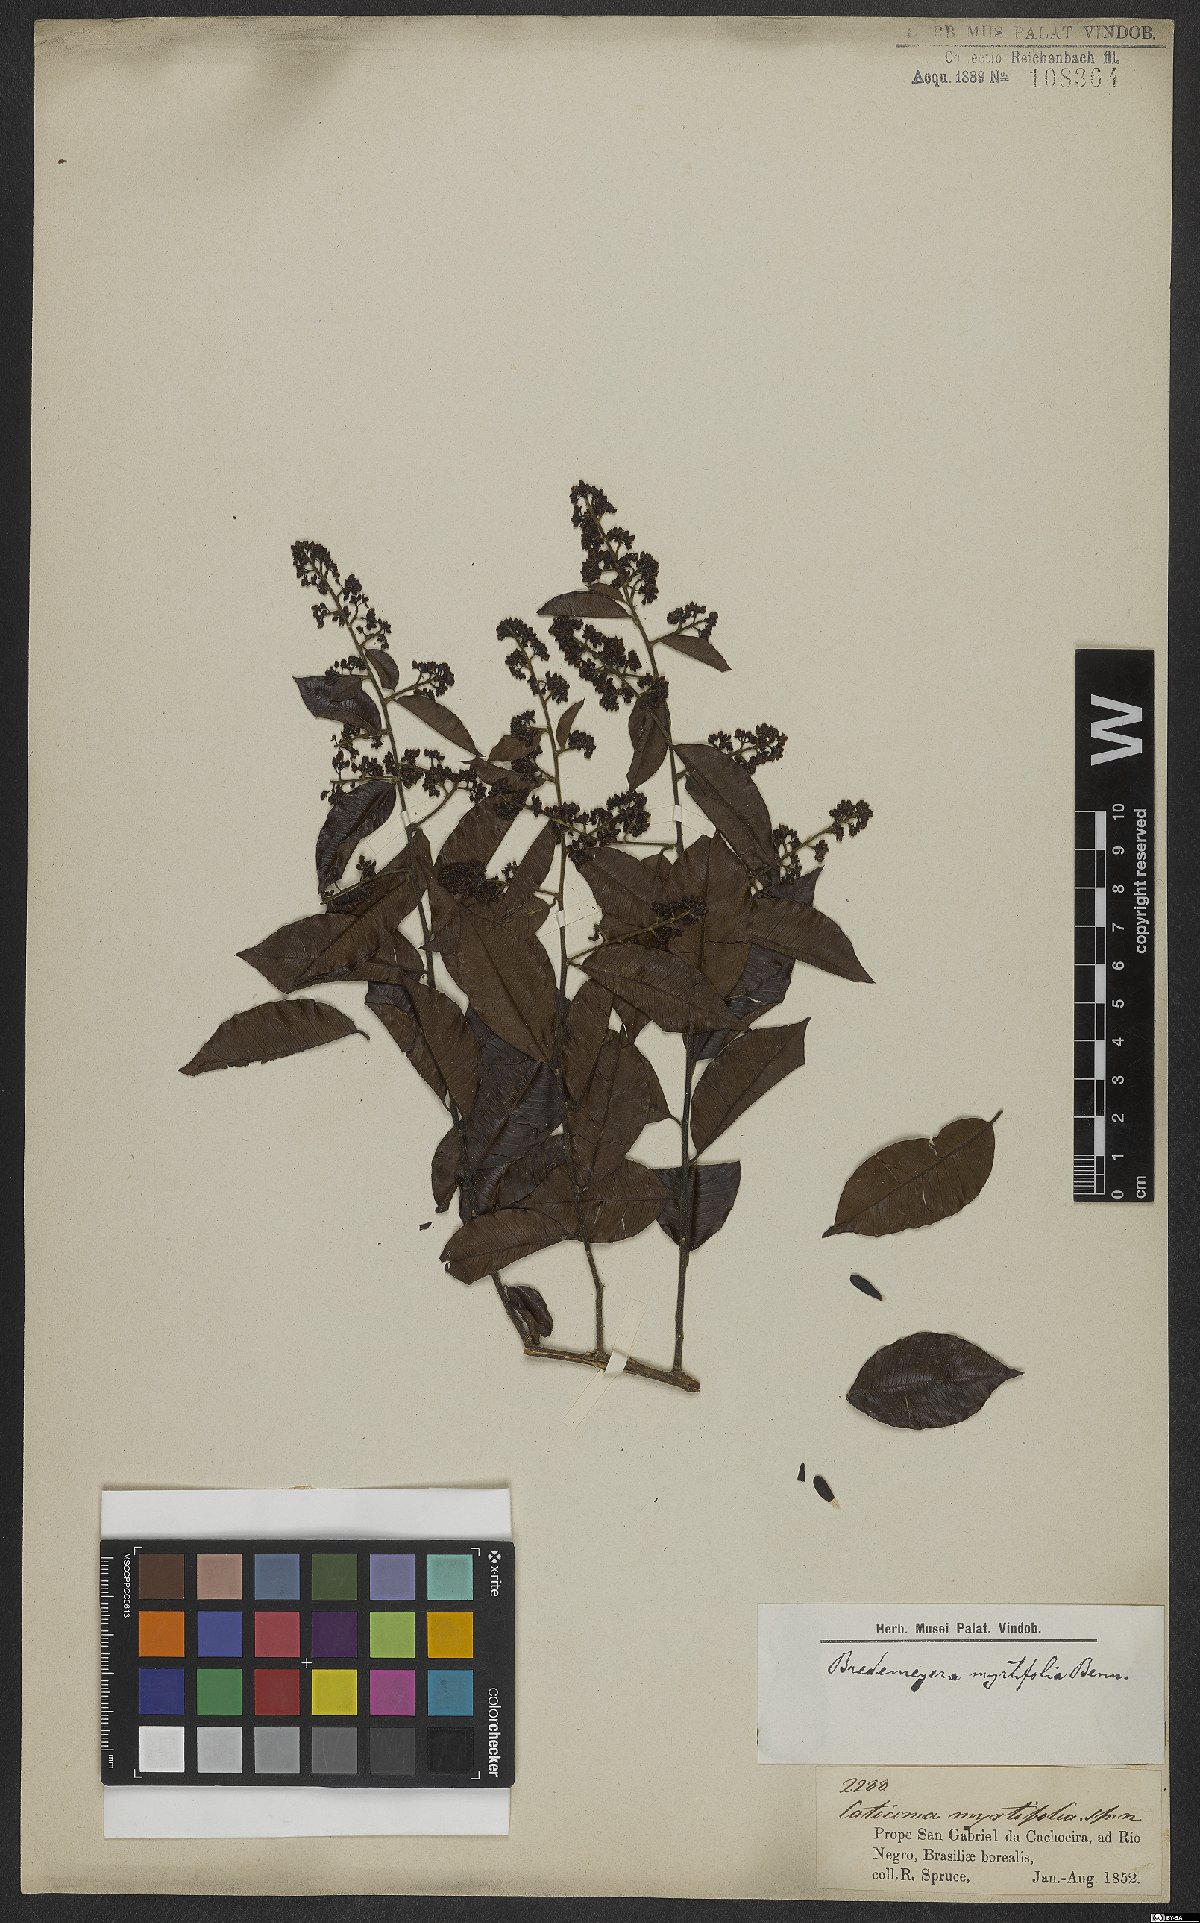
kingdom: Plantae
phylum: Tracheophyta
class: Magnoliopsida
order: Fabales
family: Polygalaceae
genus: Bredemeyera
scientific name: Bredemeyera myrtifolia
